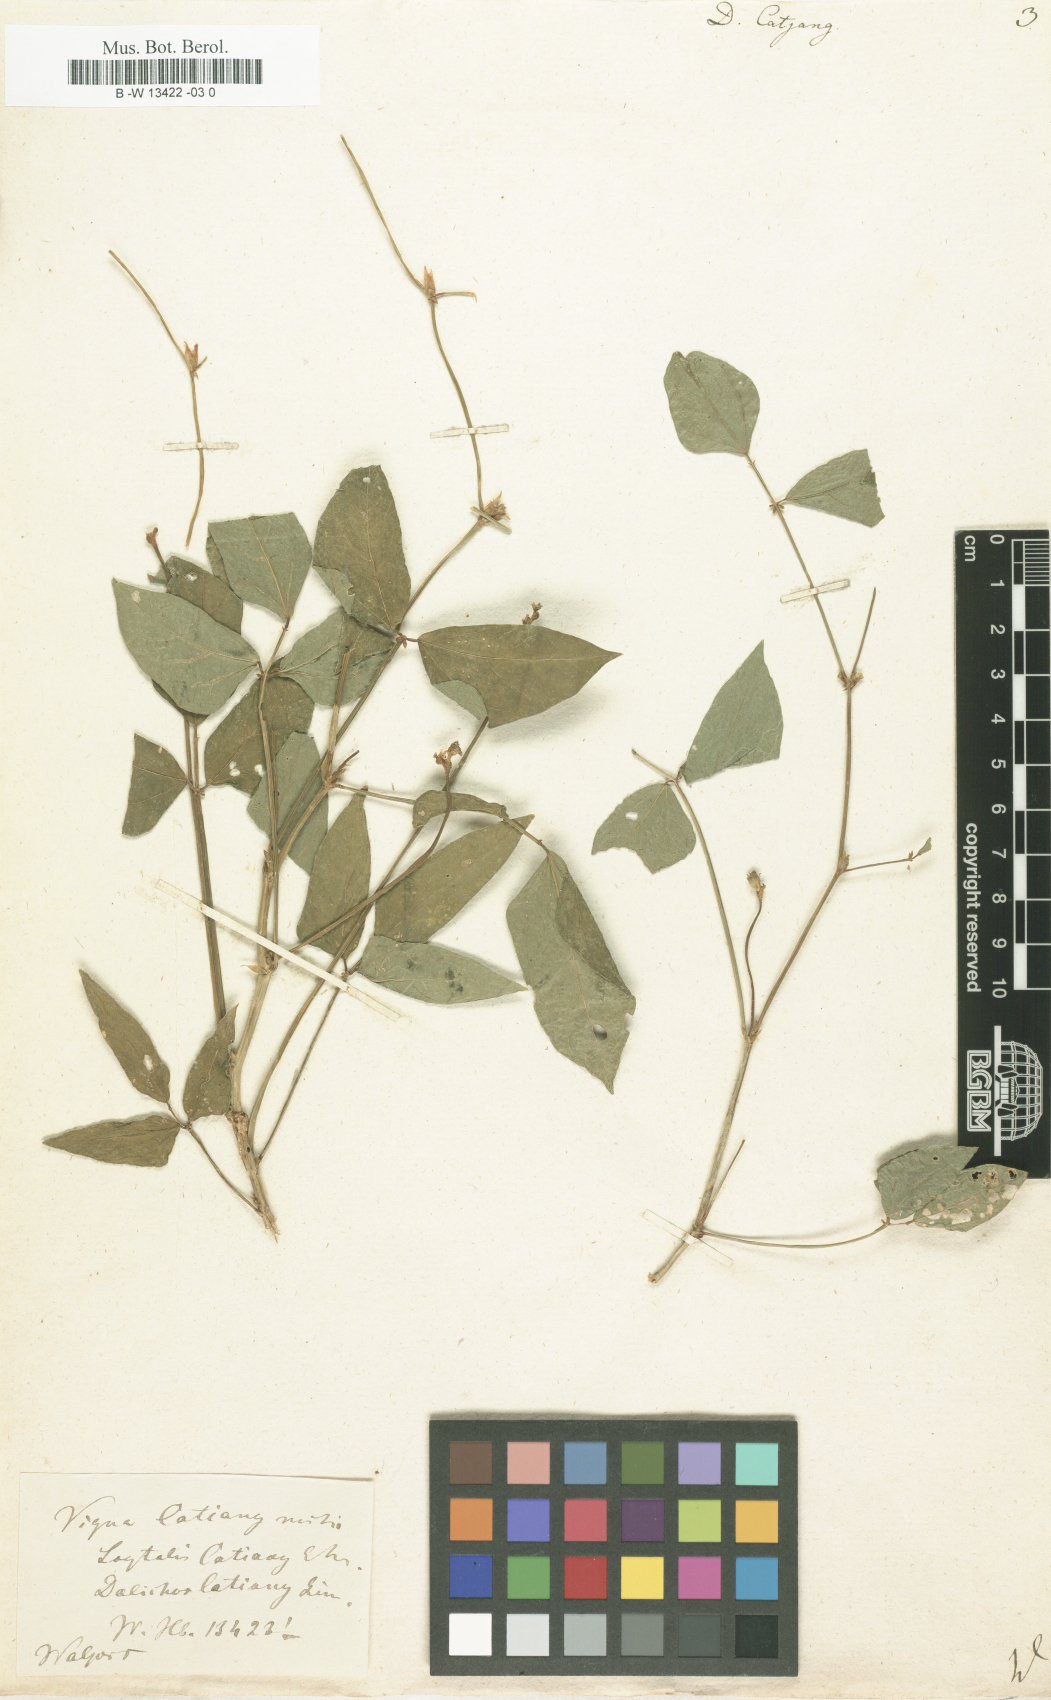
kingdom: Plantae
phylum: Tracheophyta
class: Magnoliopsida
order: Fabales
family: Fabaceae
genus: Vigna
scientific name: Vigna unguiculata
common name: Cowpea
